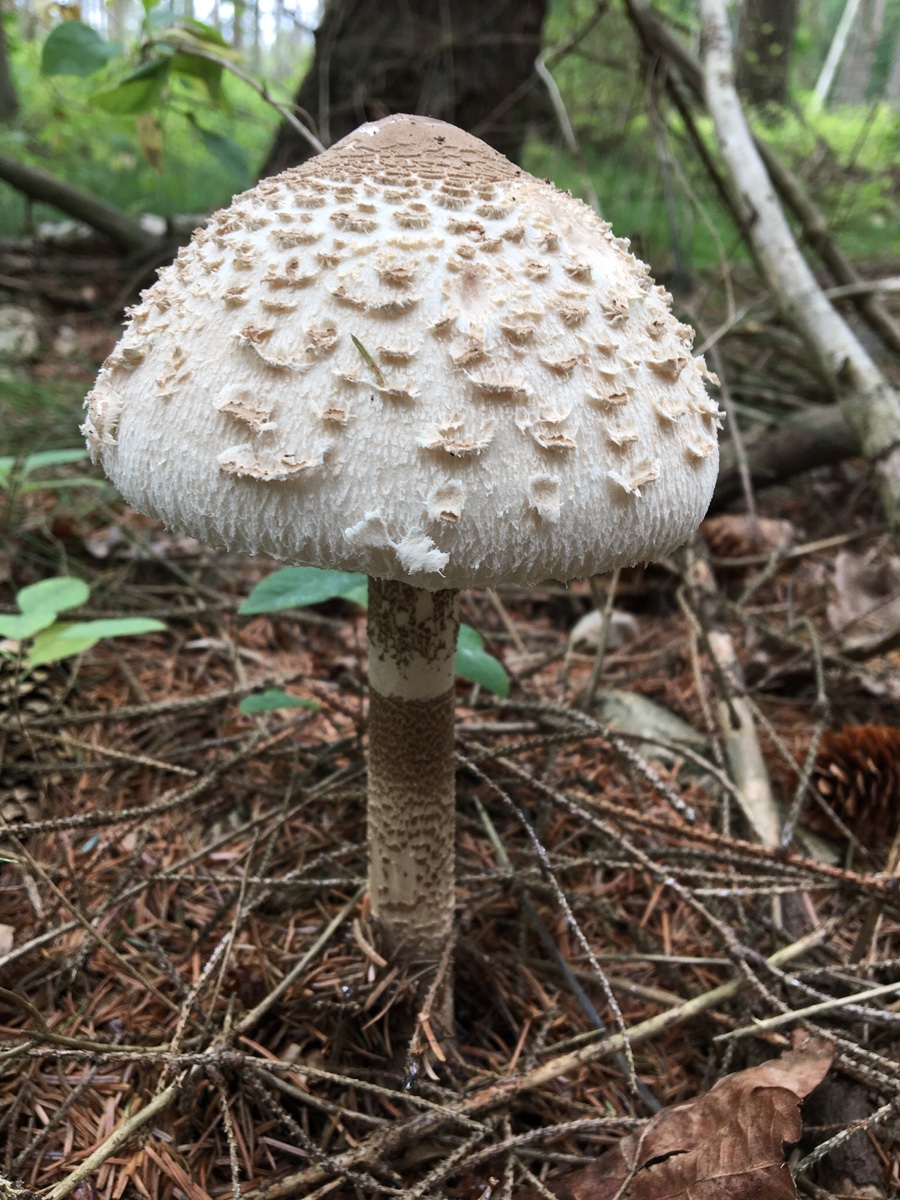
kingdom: Fungi
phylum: Basidiomycota
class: Agaricomycetes
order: Agaricales
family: Agaricaceae
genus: Macrolepiota
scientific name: Macrolepiota fuliginosa
